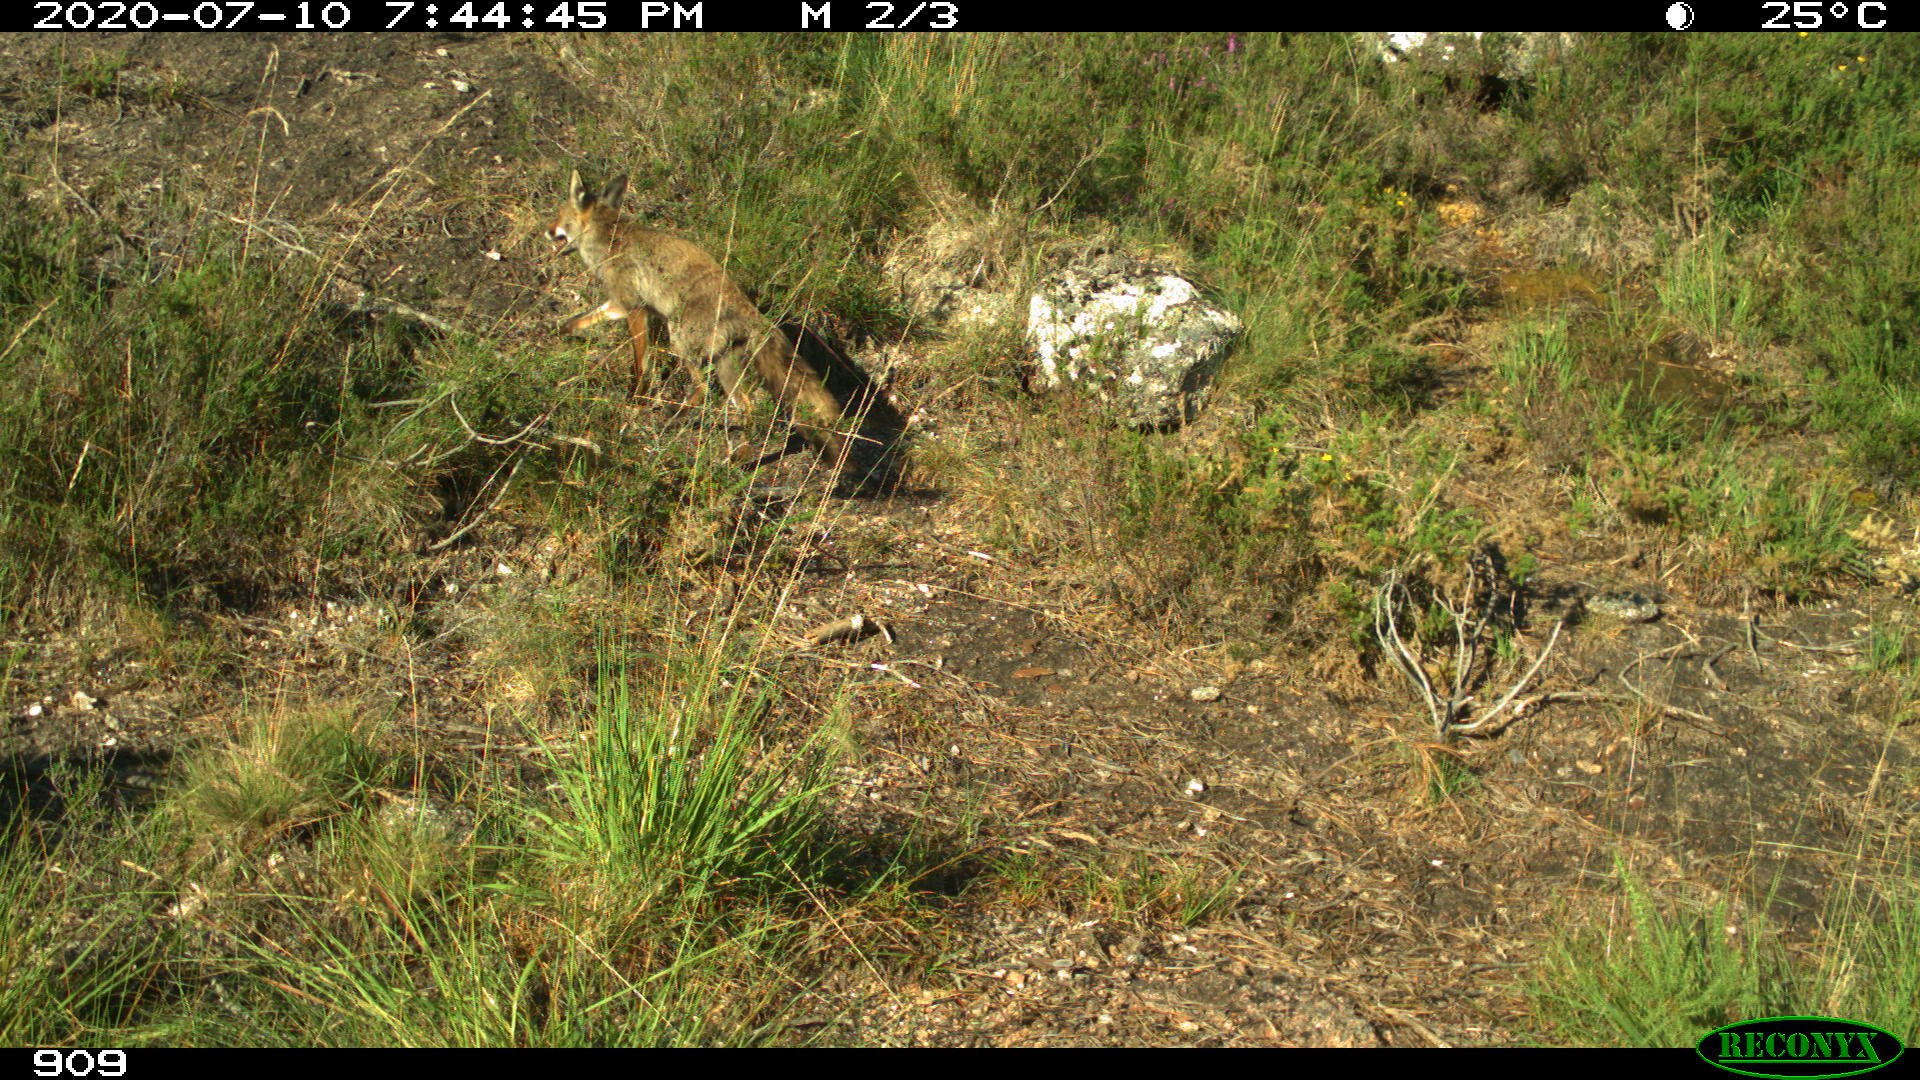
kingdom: Animalia
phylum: Chordata
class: Mammalia
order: Carnivora
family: Canidae
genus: Vulpes
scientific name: Vulpes vulpes
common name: Red fox
